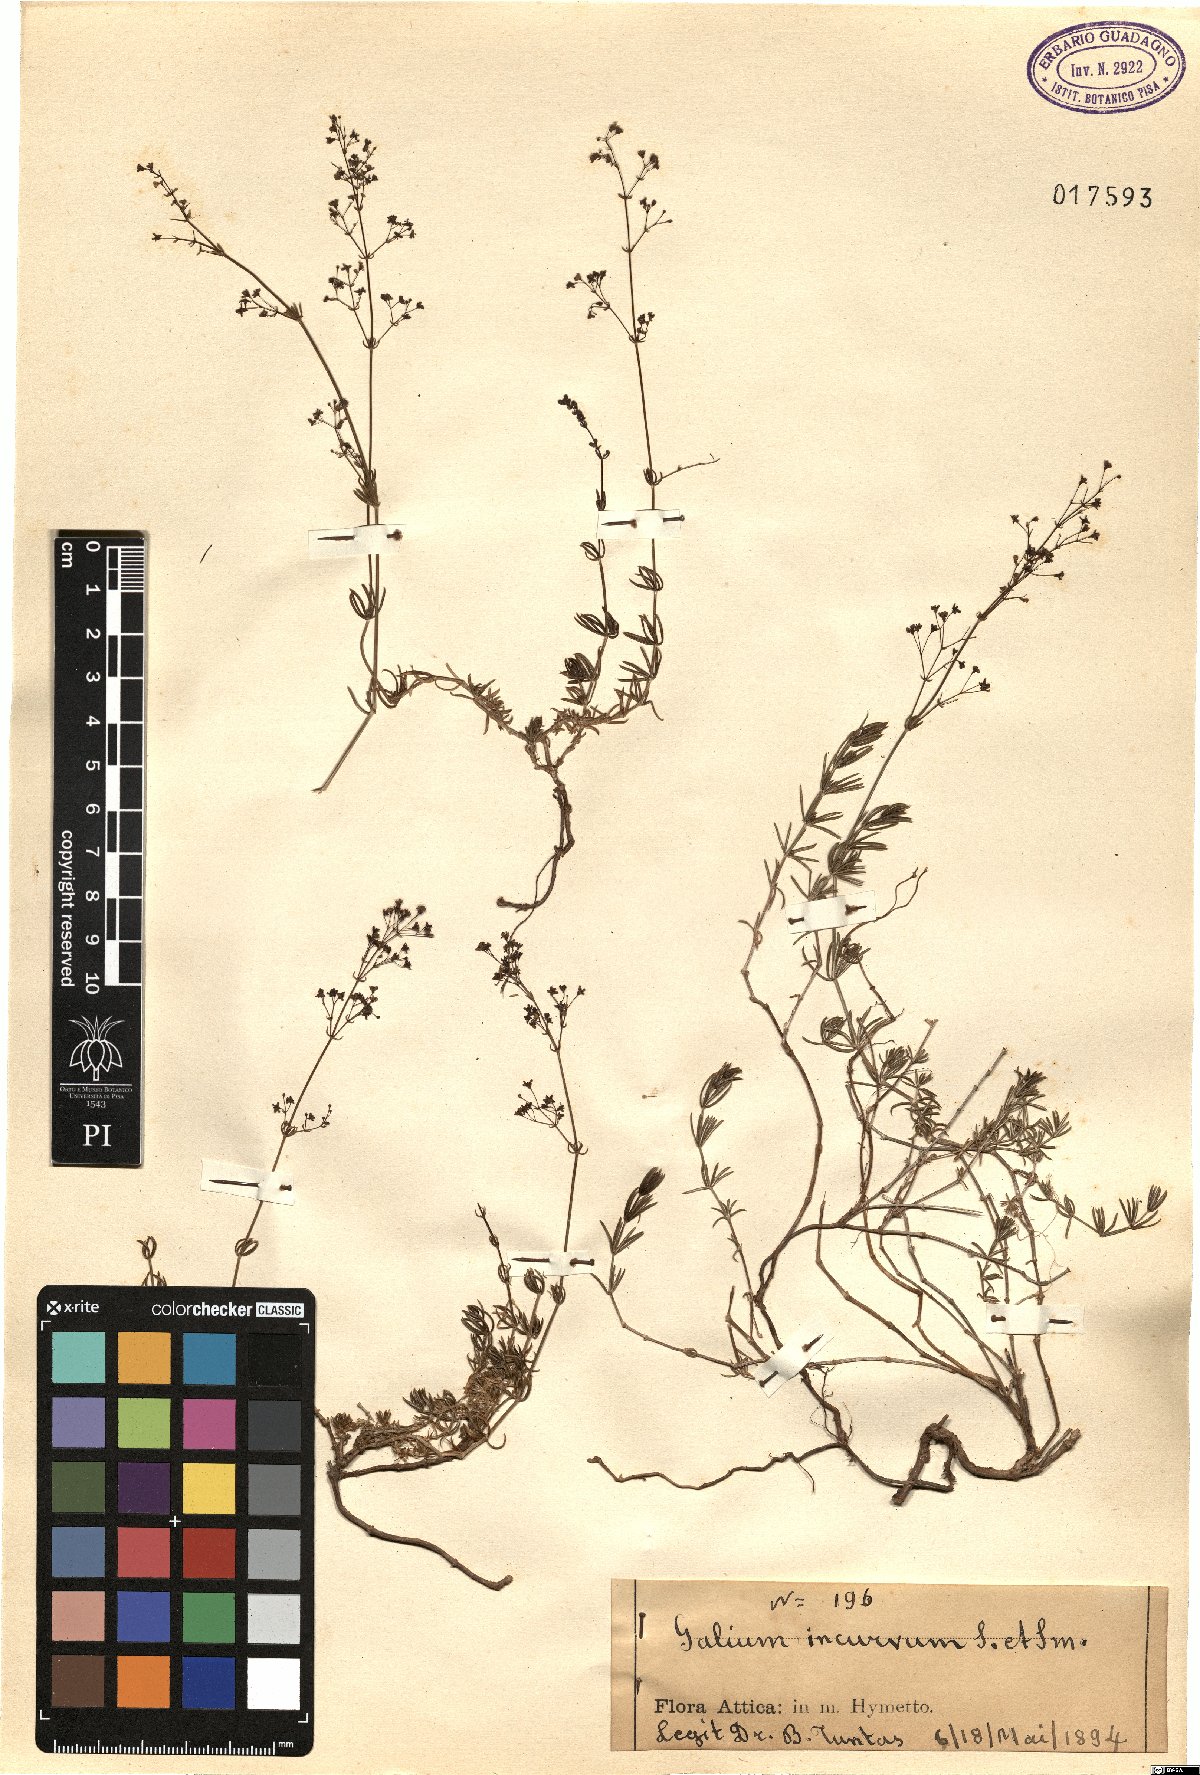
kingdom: Plantae
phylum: Tracheophyta
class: Magnoliopsida
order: Gentianales
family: Rubiaceae
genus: Galium
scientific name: Galium incurvum
